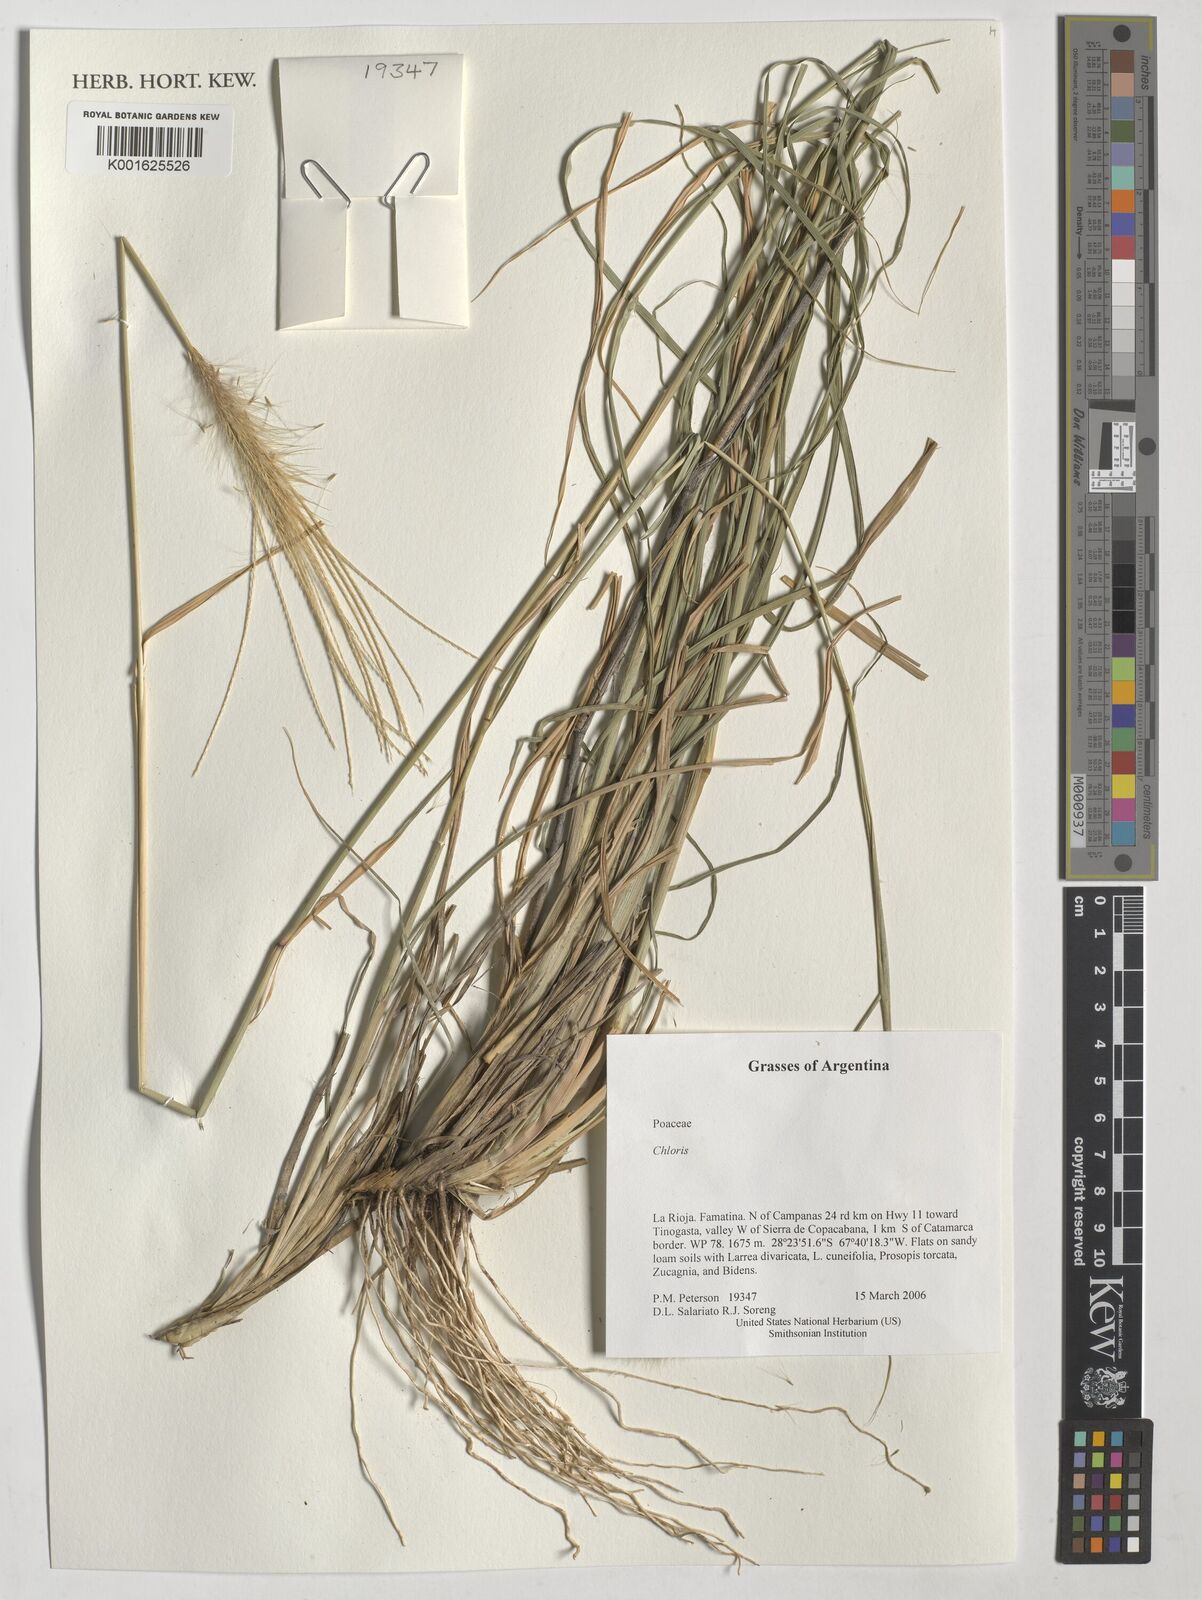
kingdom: Plantae
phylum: Tracheophyta
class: Liliopsida
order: Poales
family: Poaceae
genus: Chloris
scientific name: Chloris
